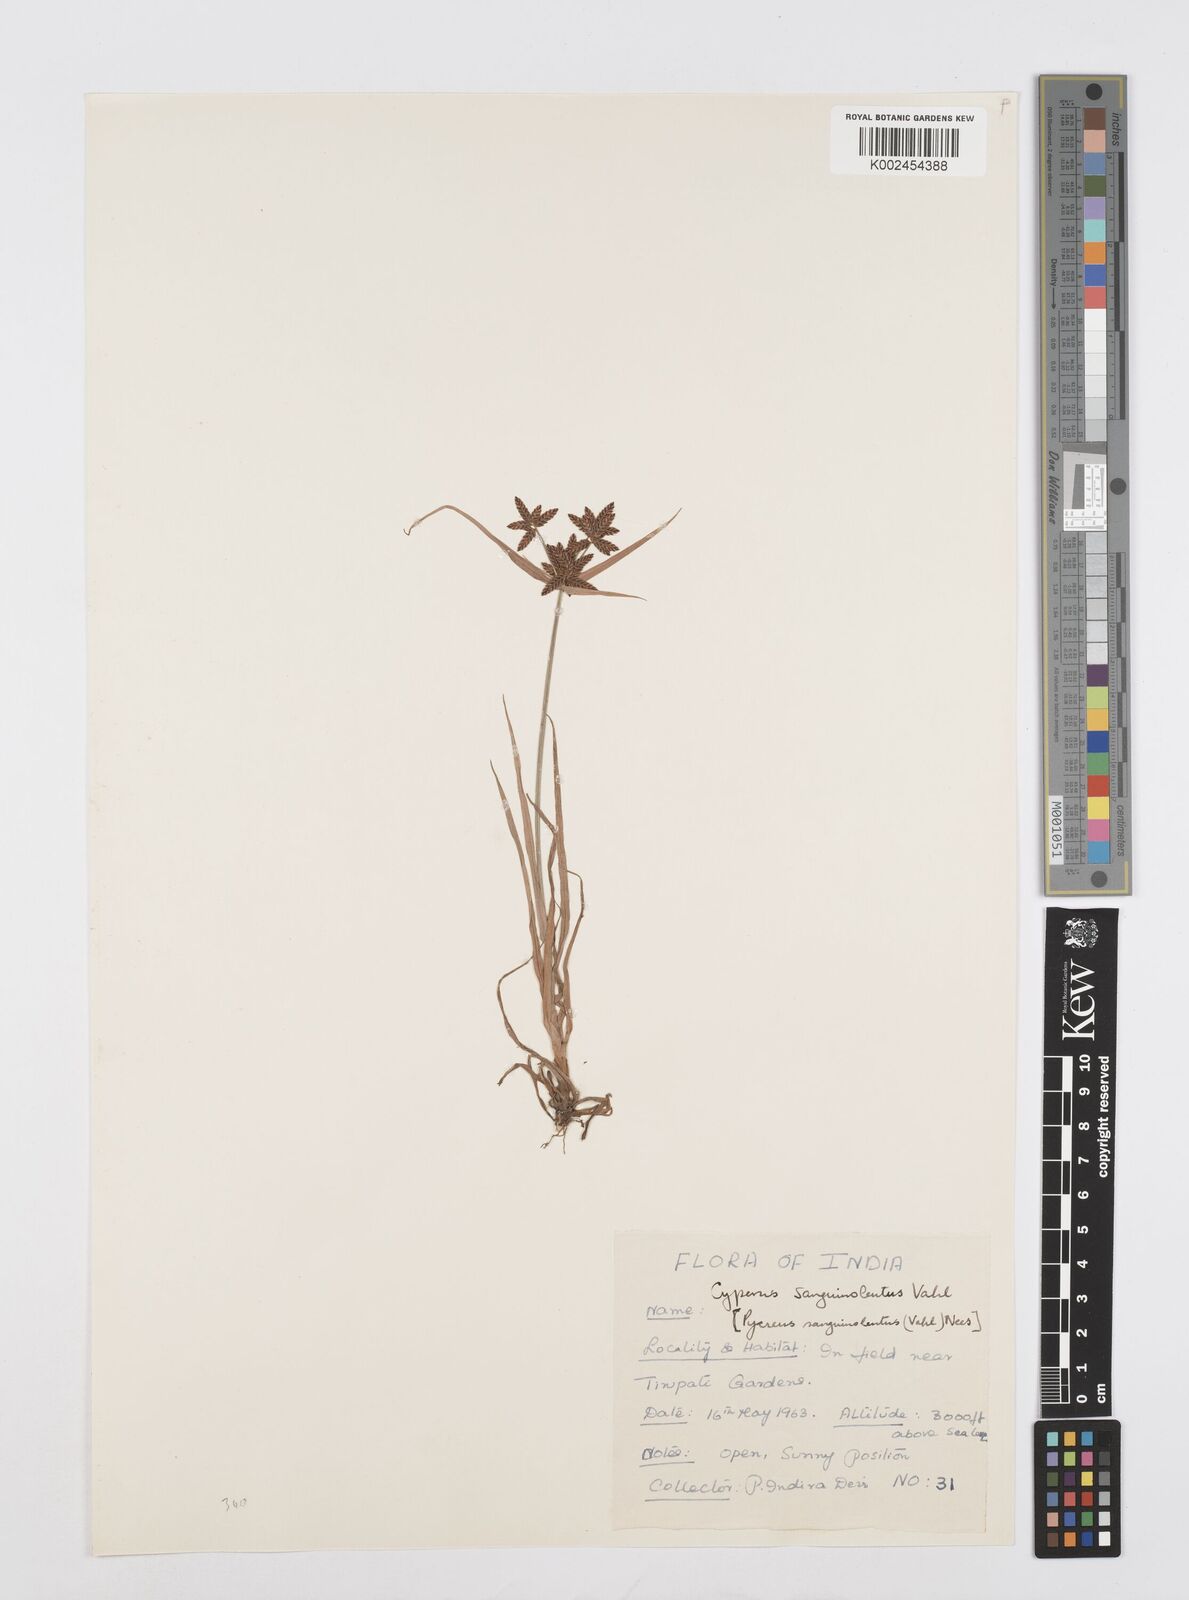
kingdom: Plantae
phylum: Tracheophyta
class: Liliopsida
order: Poales
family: Cyperaceae
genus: Cyperus
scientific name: Cyperus sanguinolentus
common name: Purpleglume flatsedge
